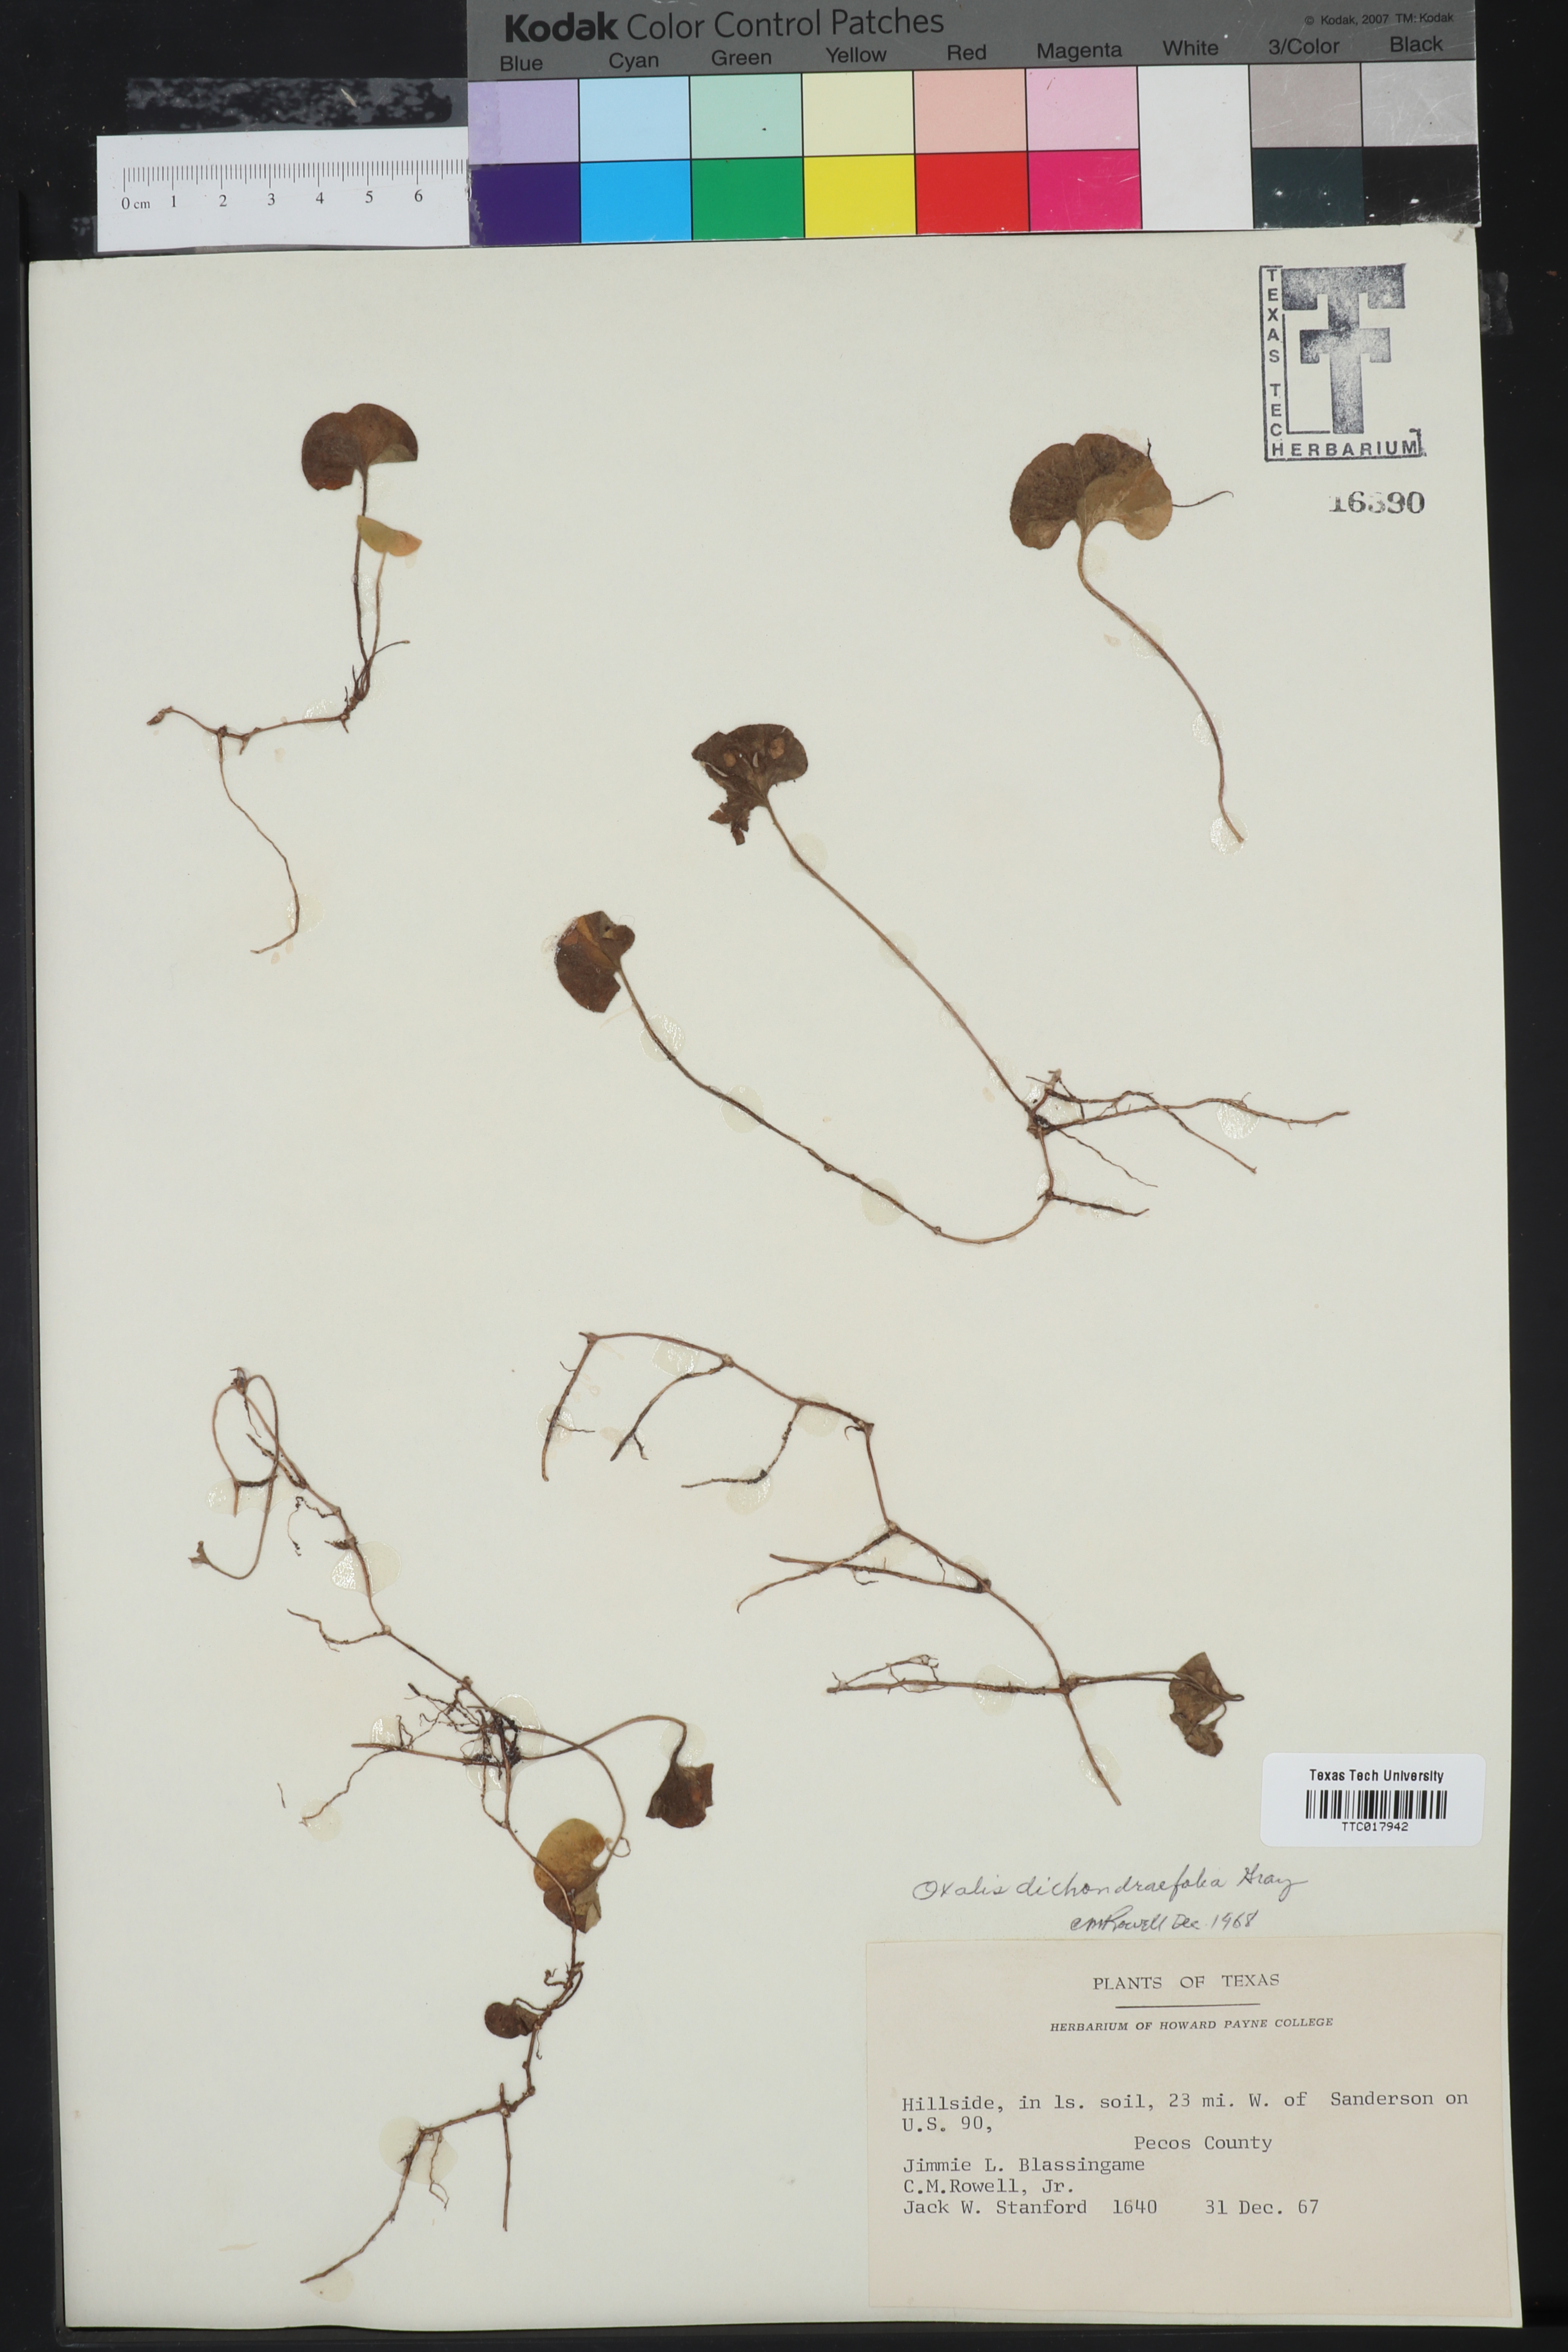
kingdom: Plantae
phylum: Tracheophyta
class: Magnoliopsida
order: Oxalidales
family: Oxalidaceae
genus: Oxalis
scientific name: Oxalis dichondrifolia
